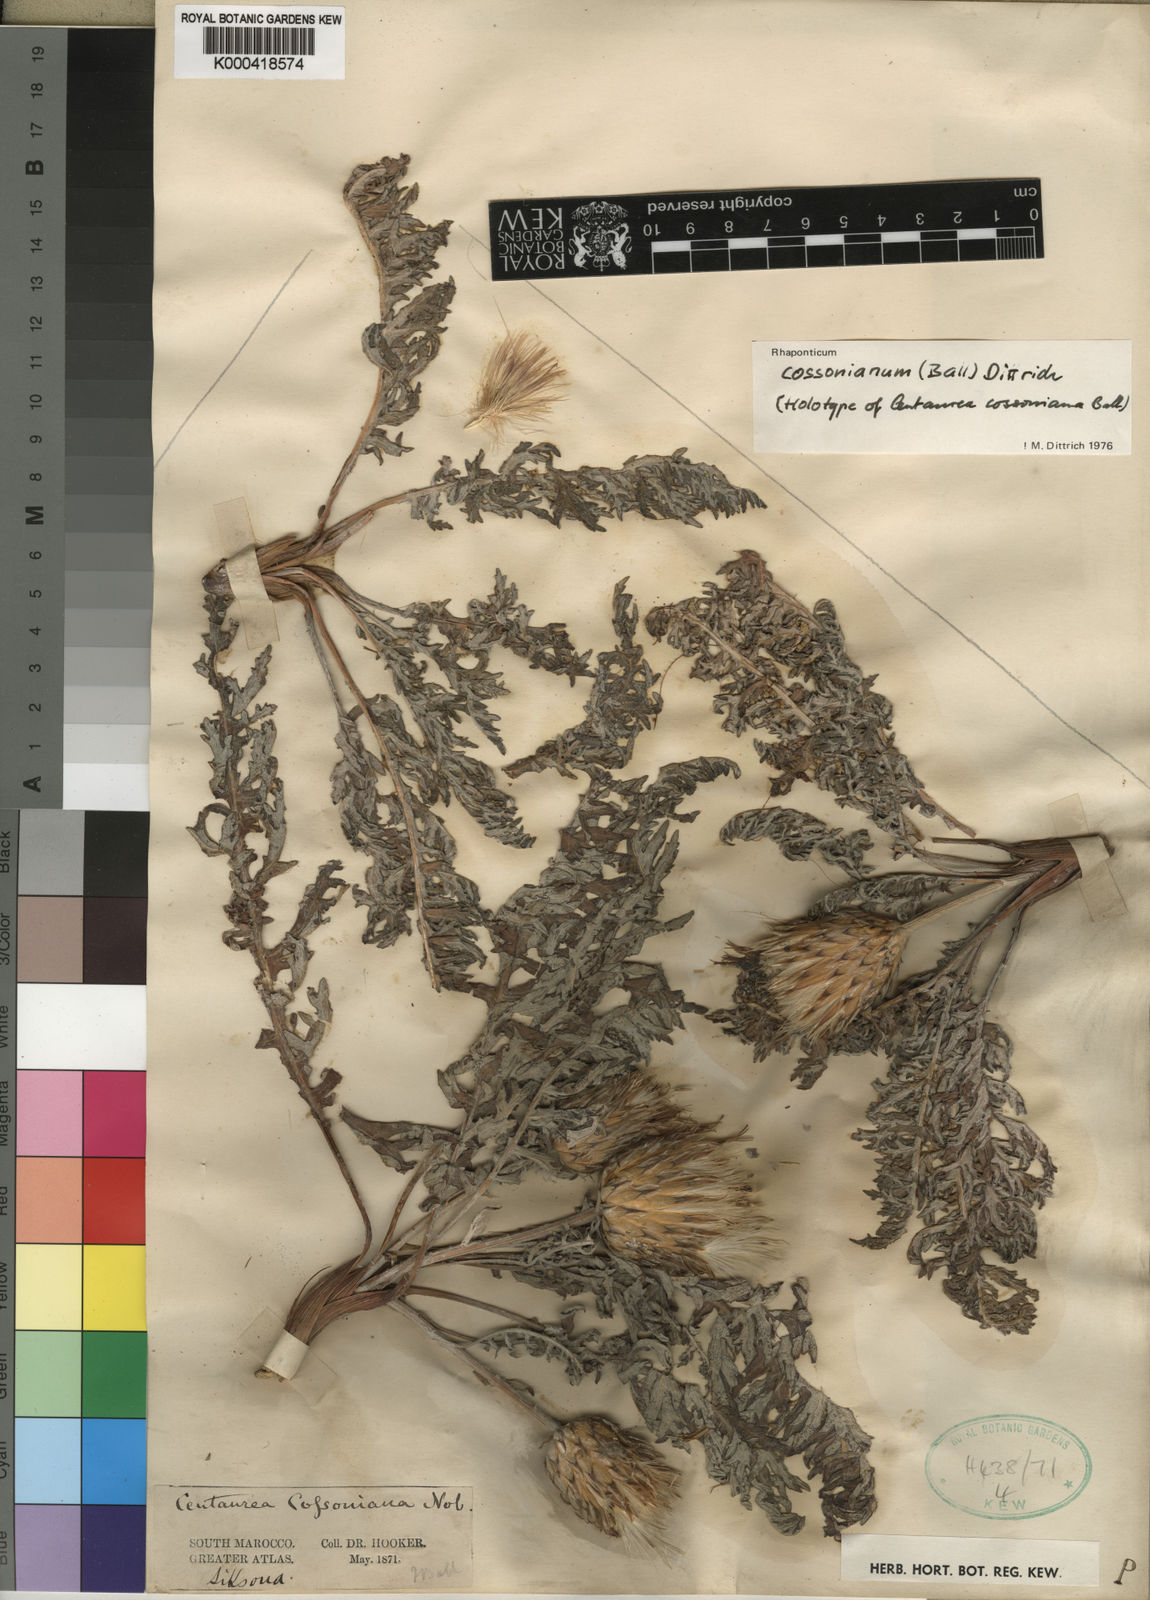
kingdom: Plantae
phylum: Tracheophyta
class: Magnoliopsida
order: Asterales
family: Asteraceae
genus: Leuzea
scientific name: Leuzea caulescens
